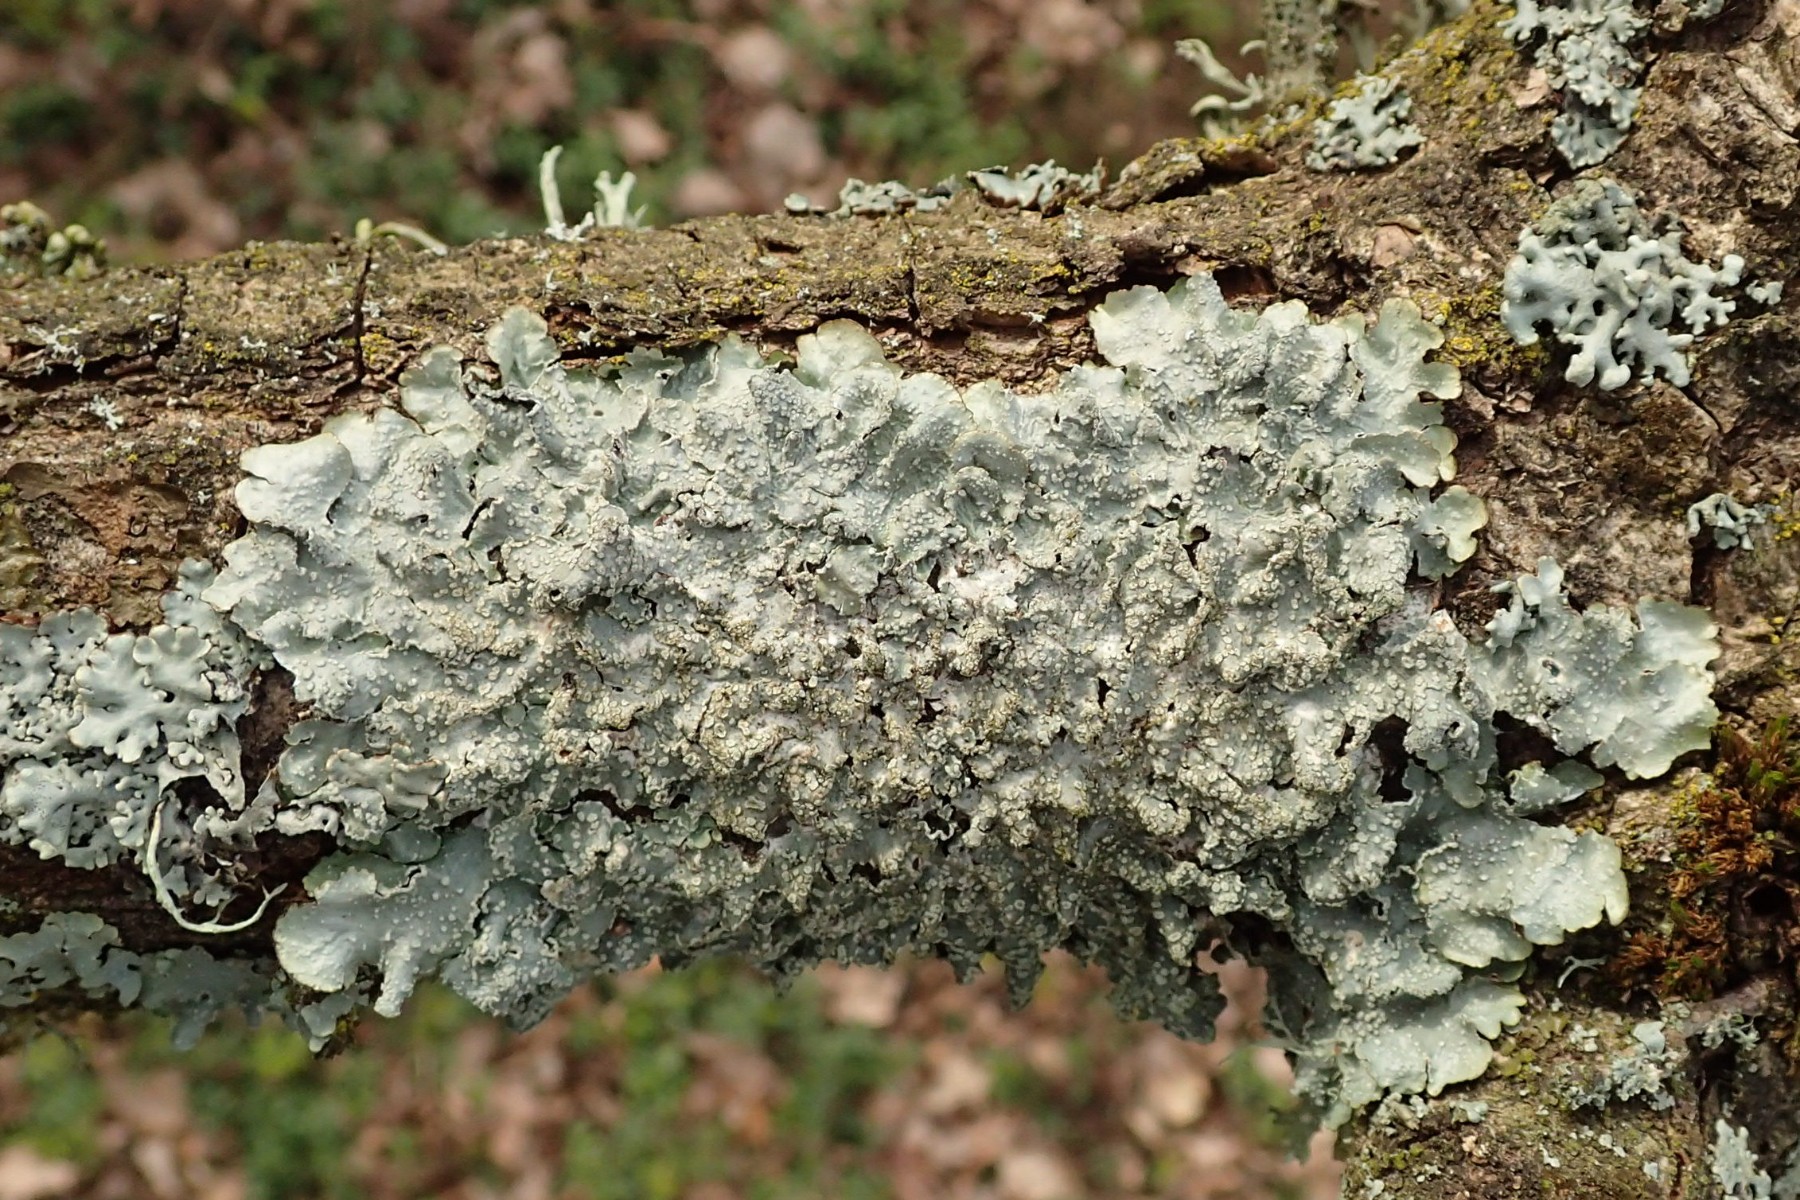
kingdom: Fungi
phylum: Ascomycota
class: Lecanoromycetes
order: Lecanorales
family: Parmeliaceae
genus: Punctelia
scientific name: Punctelia subrudecta
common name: punkt-skållav
